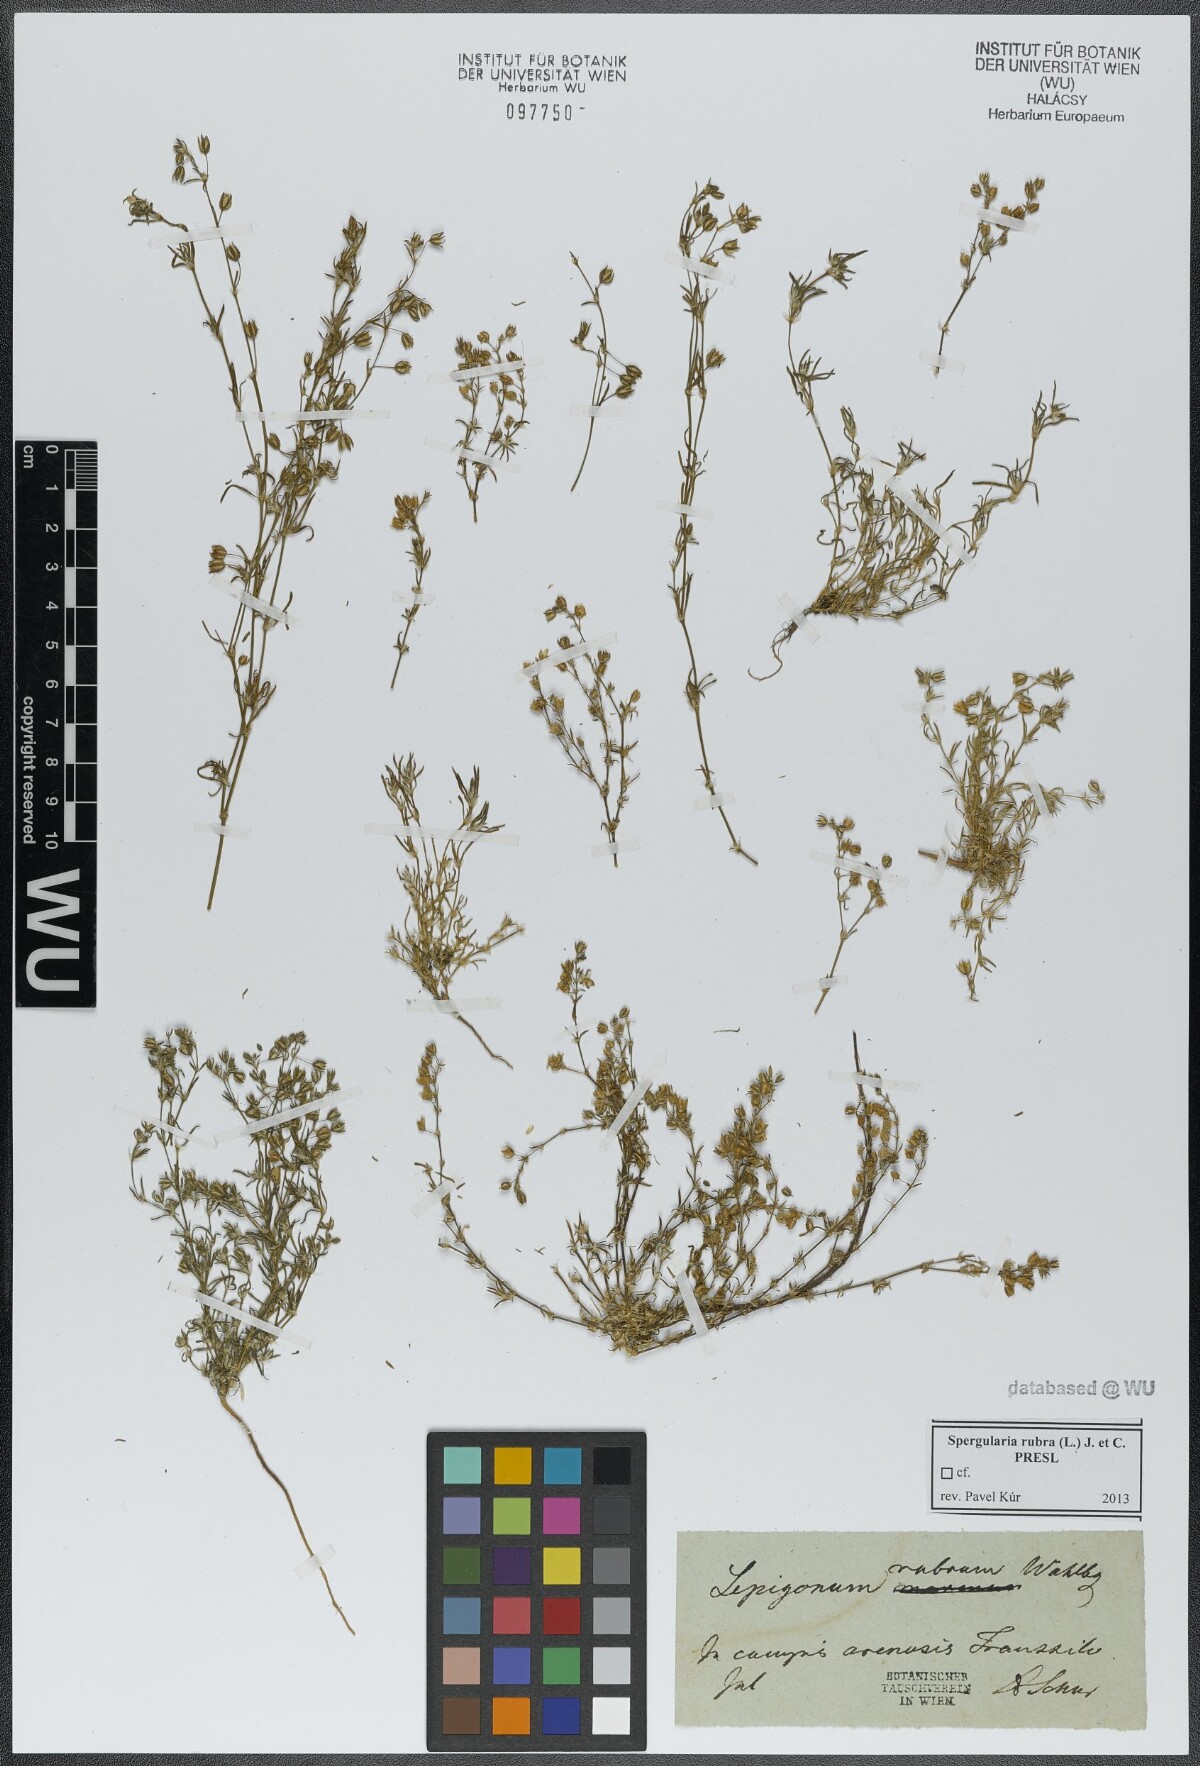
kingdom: Plantae
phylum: Tracheophyta
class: Magnoliopsida
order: Caryophyllales
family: Caryophyllaceae
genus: Spergularia
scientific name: Spergularia rubra
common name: Red sand-spurrey
